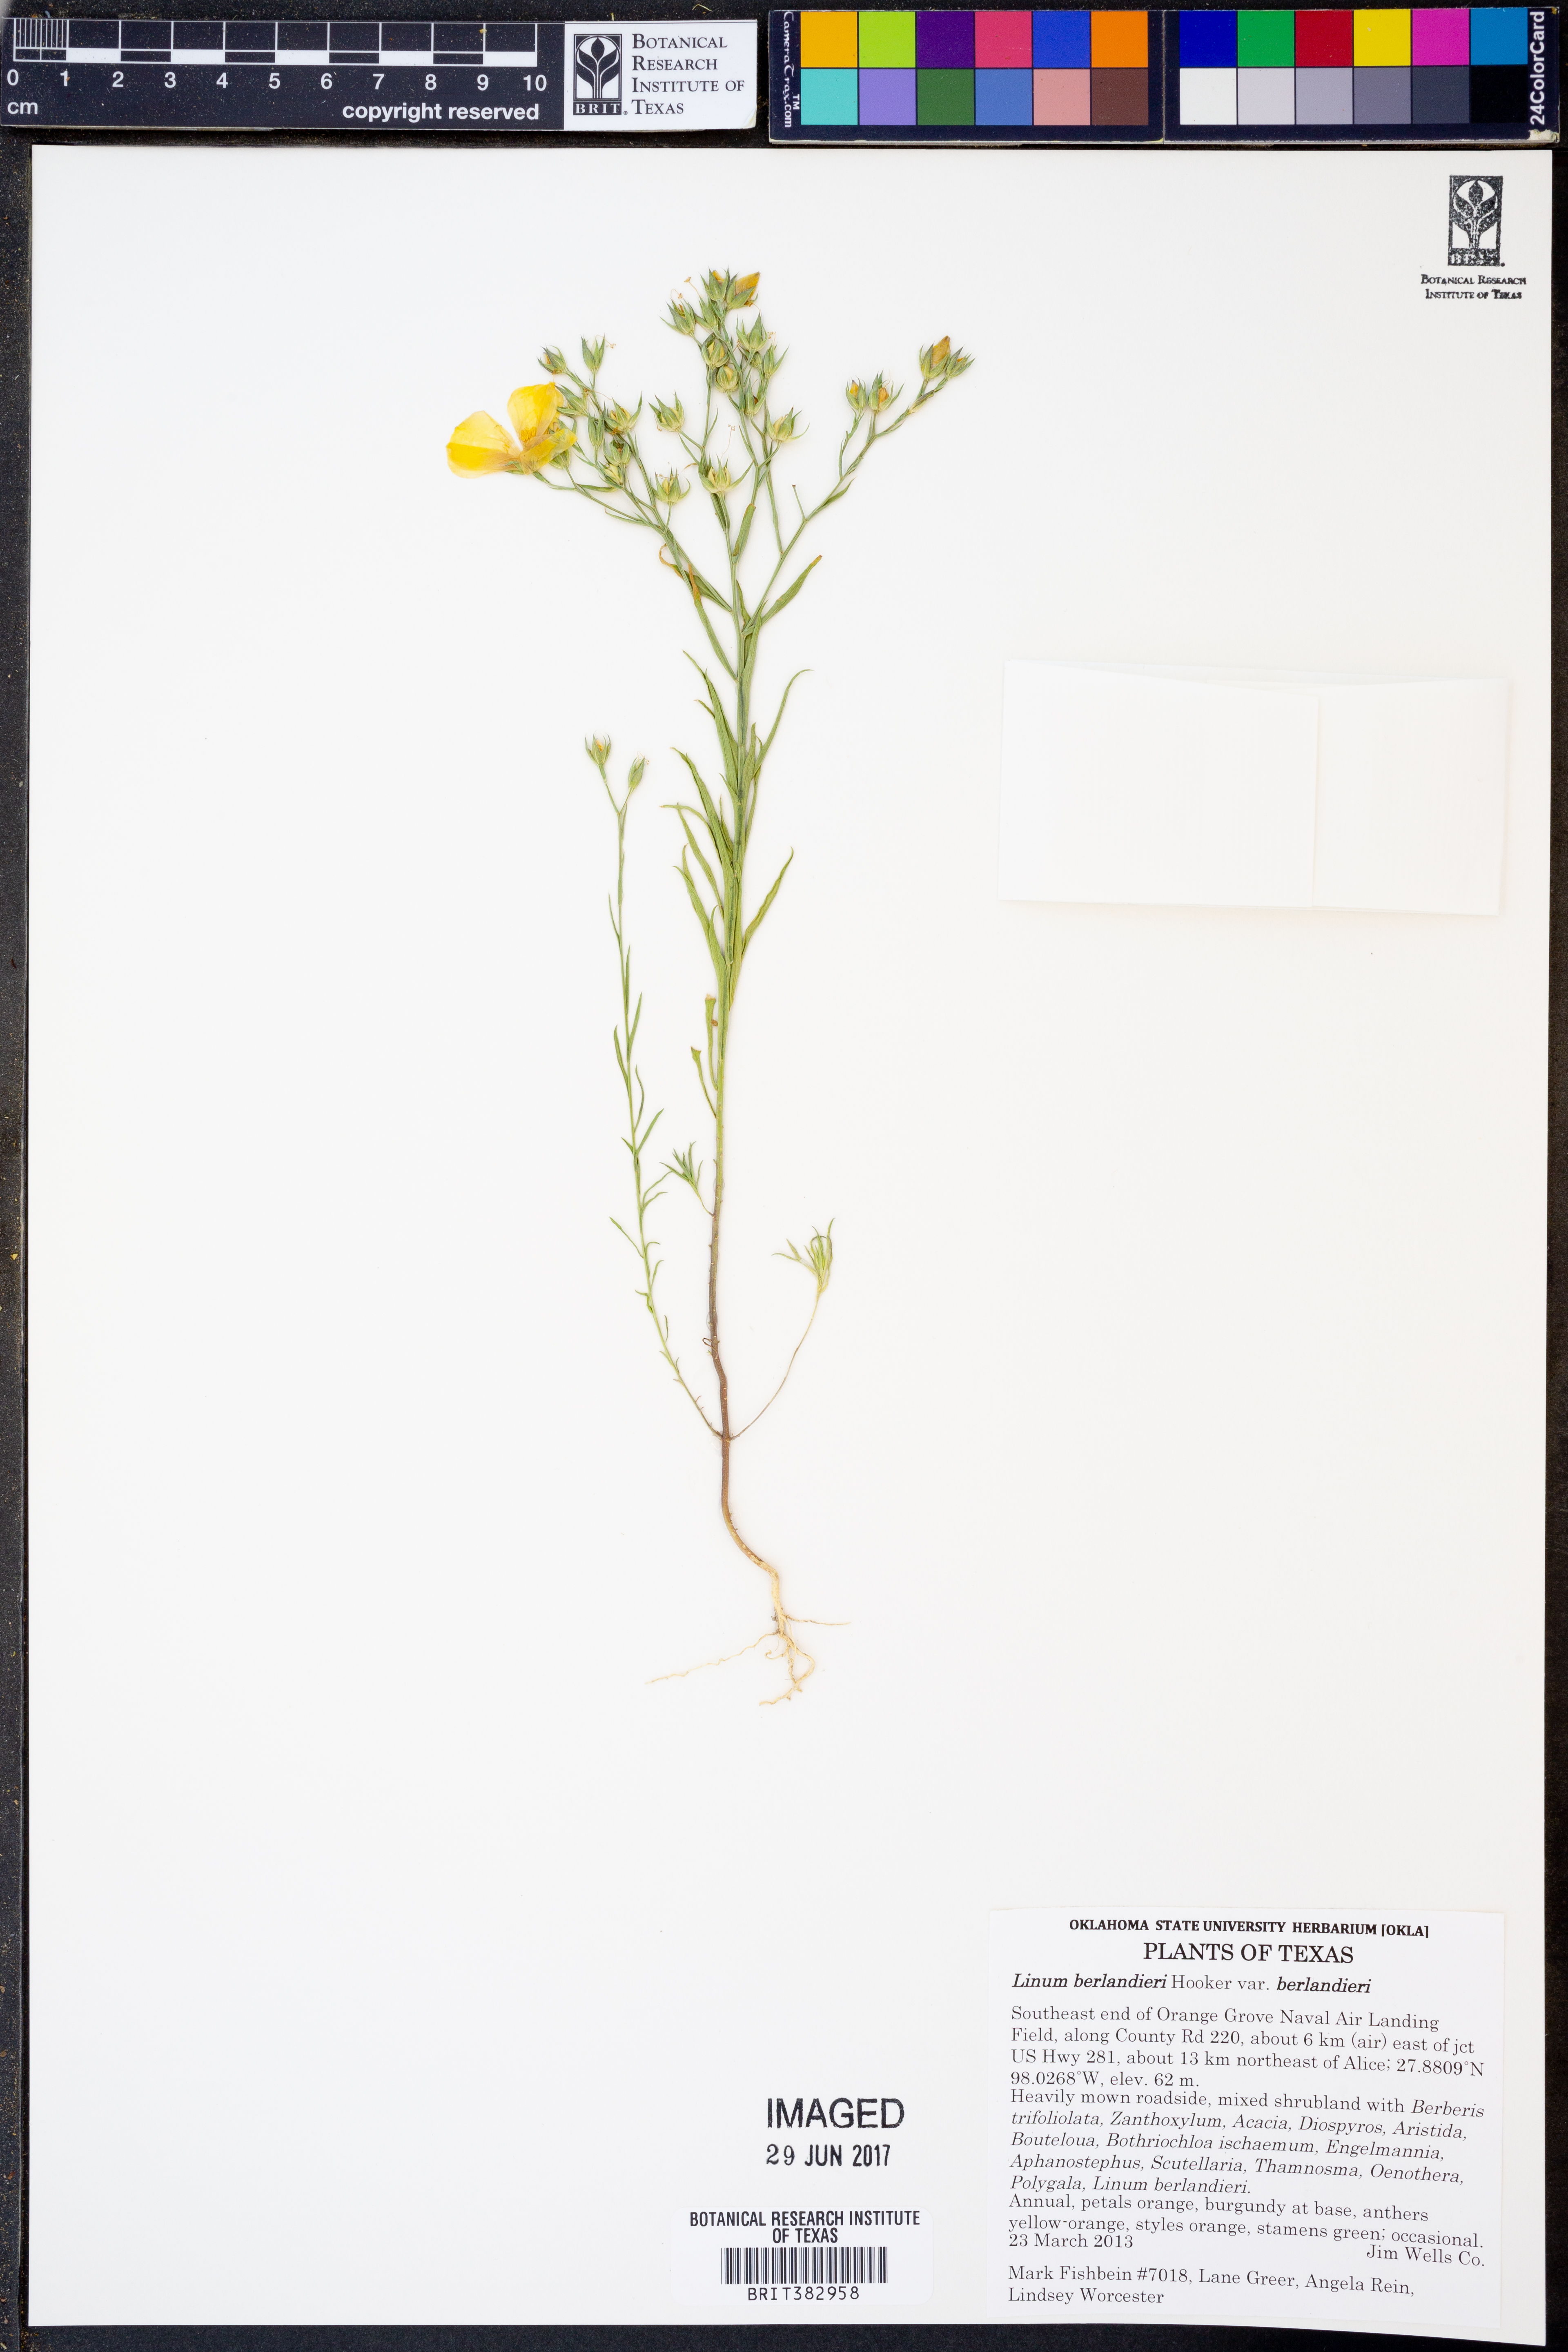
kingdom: Plantae
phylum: Tracheophyta
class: Magnoliopsida
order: Malpighiales
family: Linaceae
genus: Linum
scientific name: Linum berlandieri
